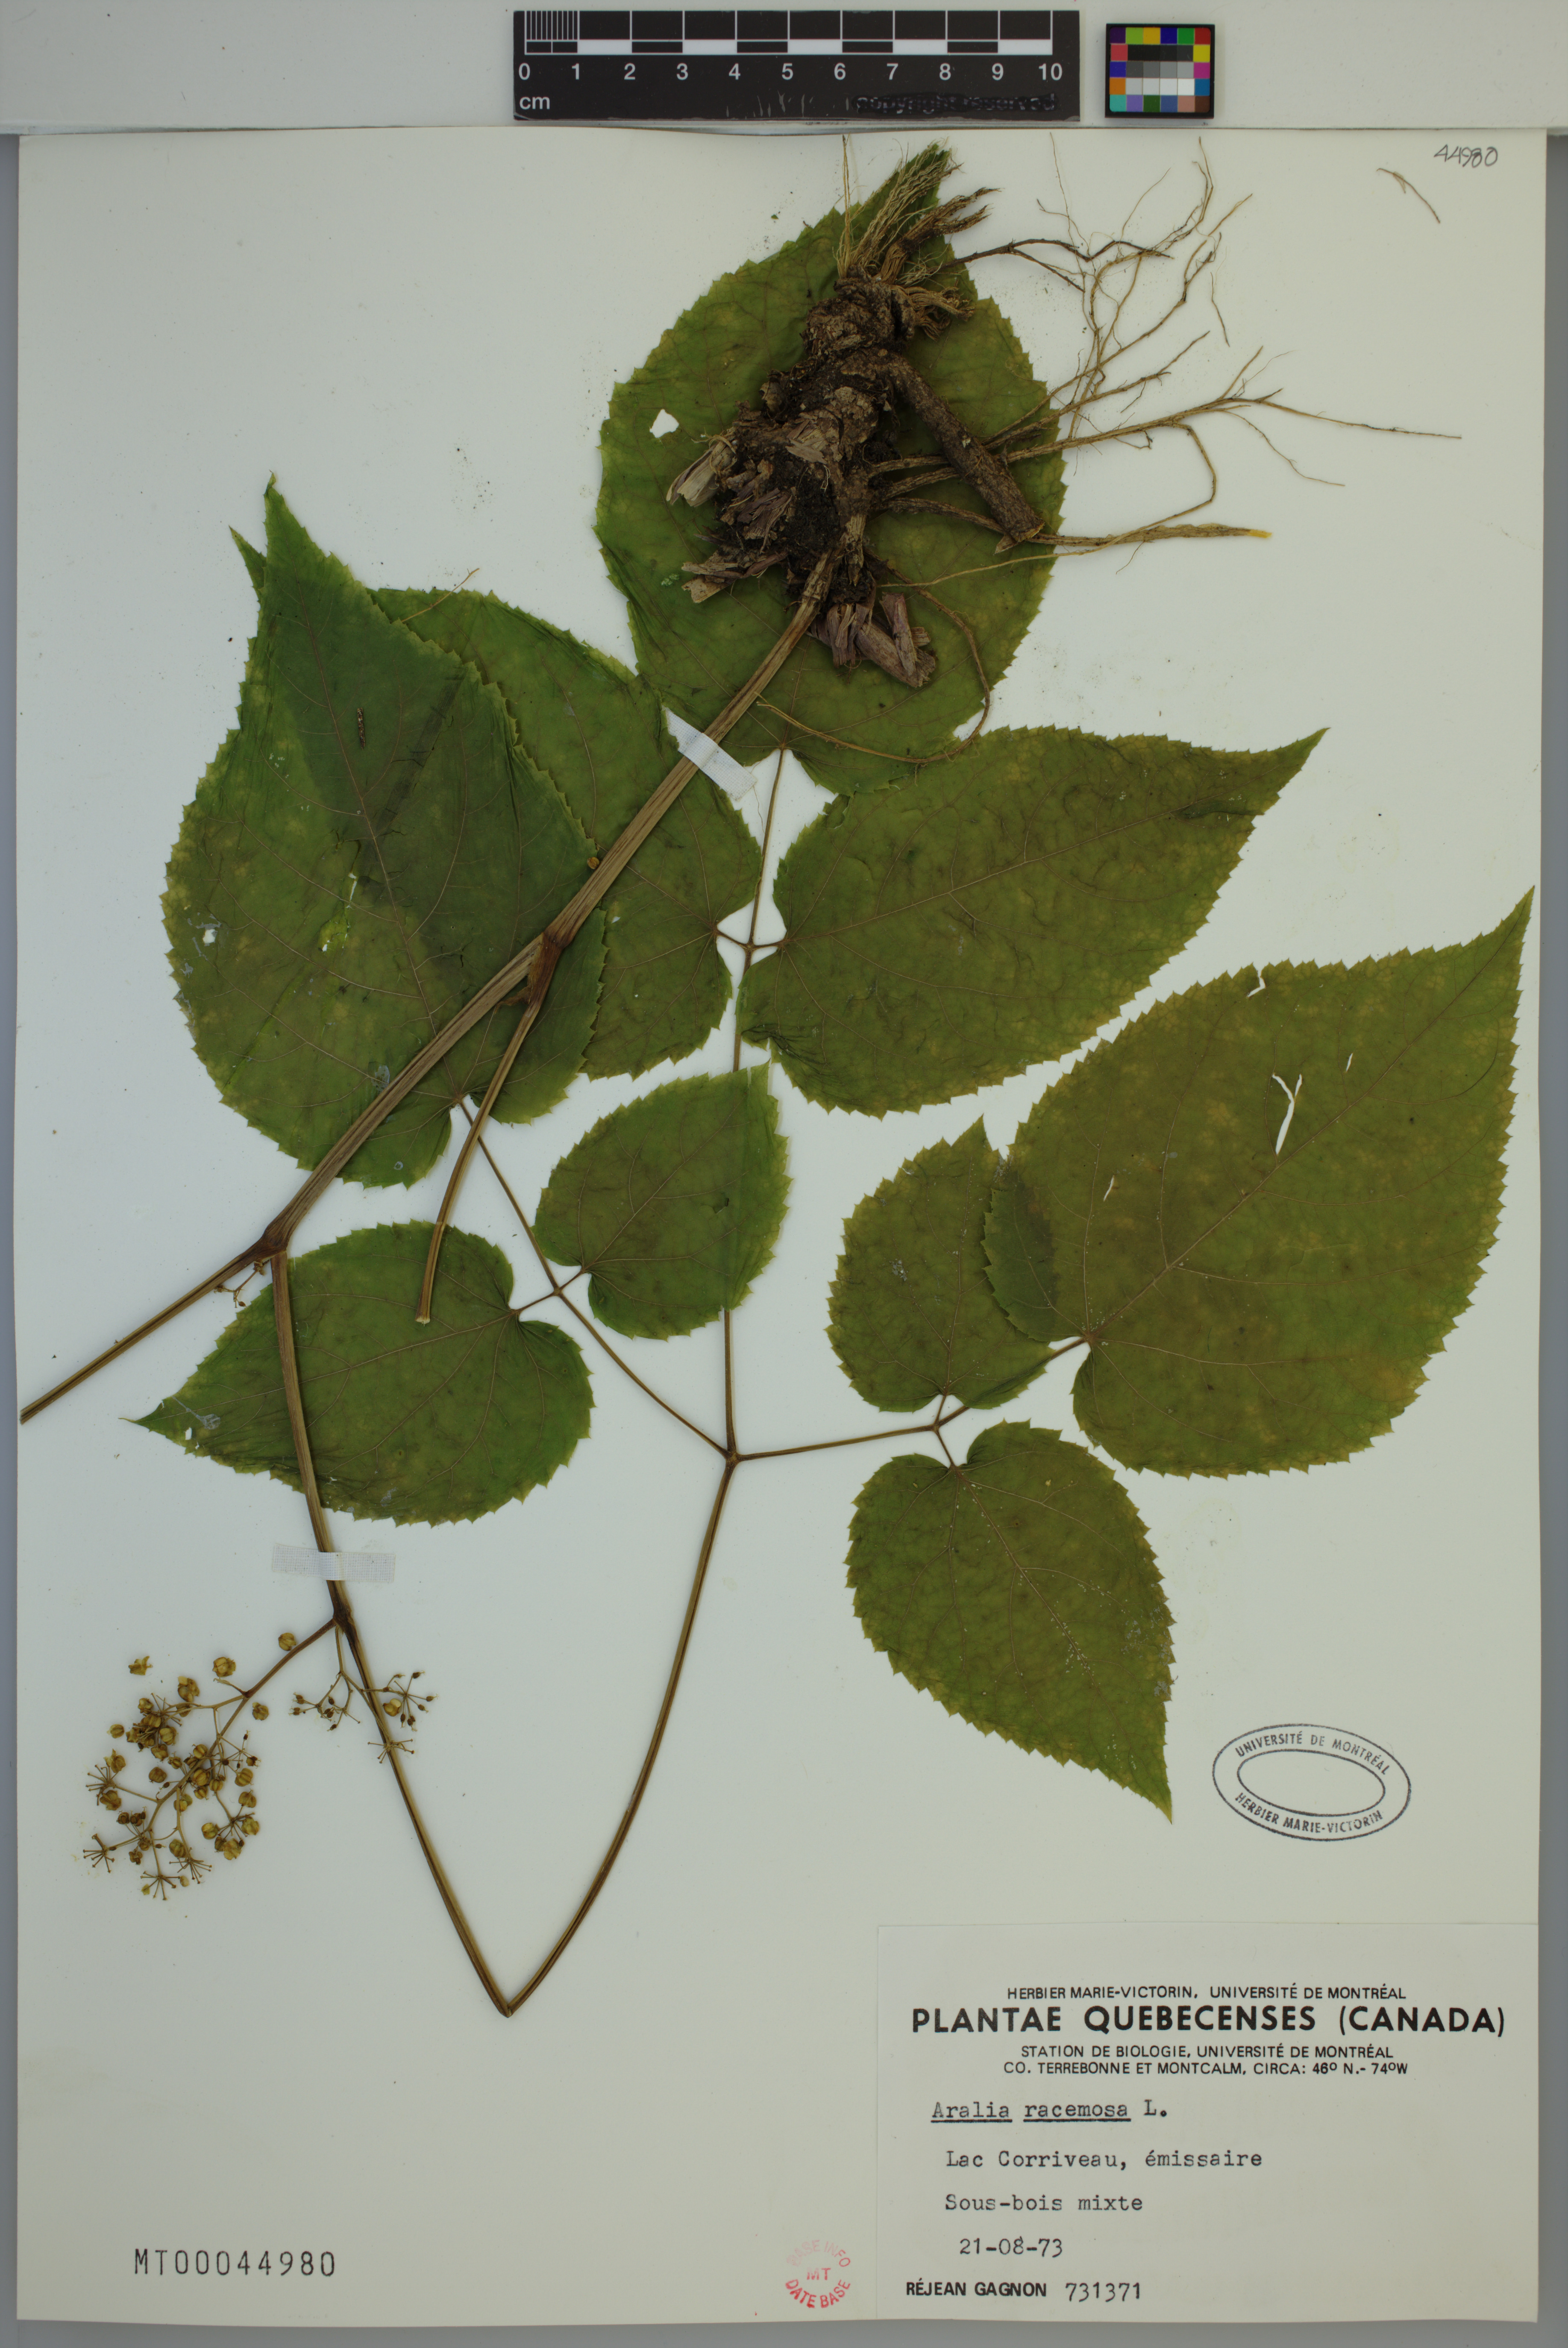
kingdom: Plantae
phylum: Tracheophyta
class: Magnoliopsida
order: Apiales
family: Araliaceae
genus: Aralia
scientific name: Aralia racemosa
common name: American-spikenard
